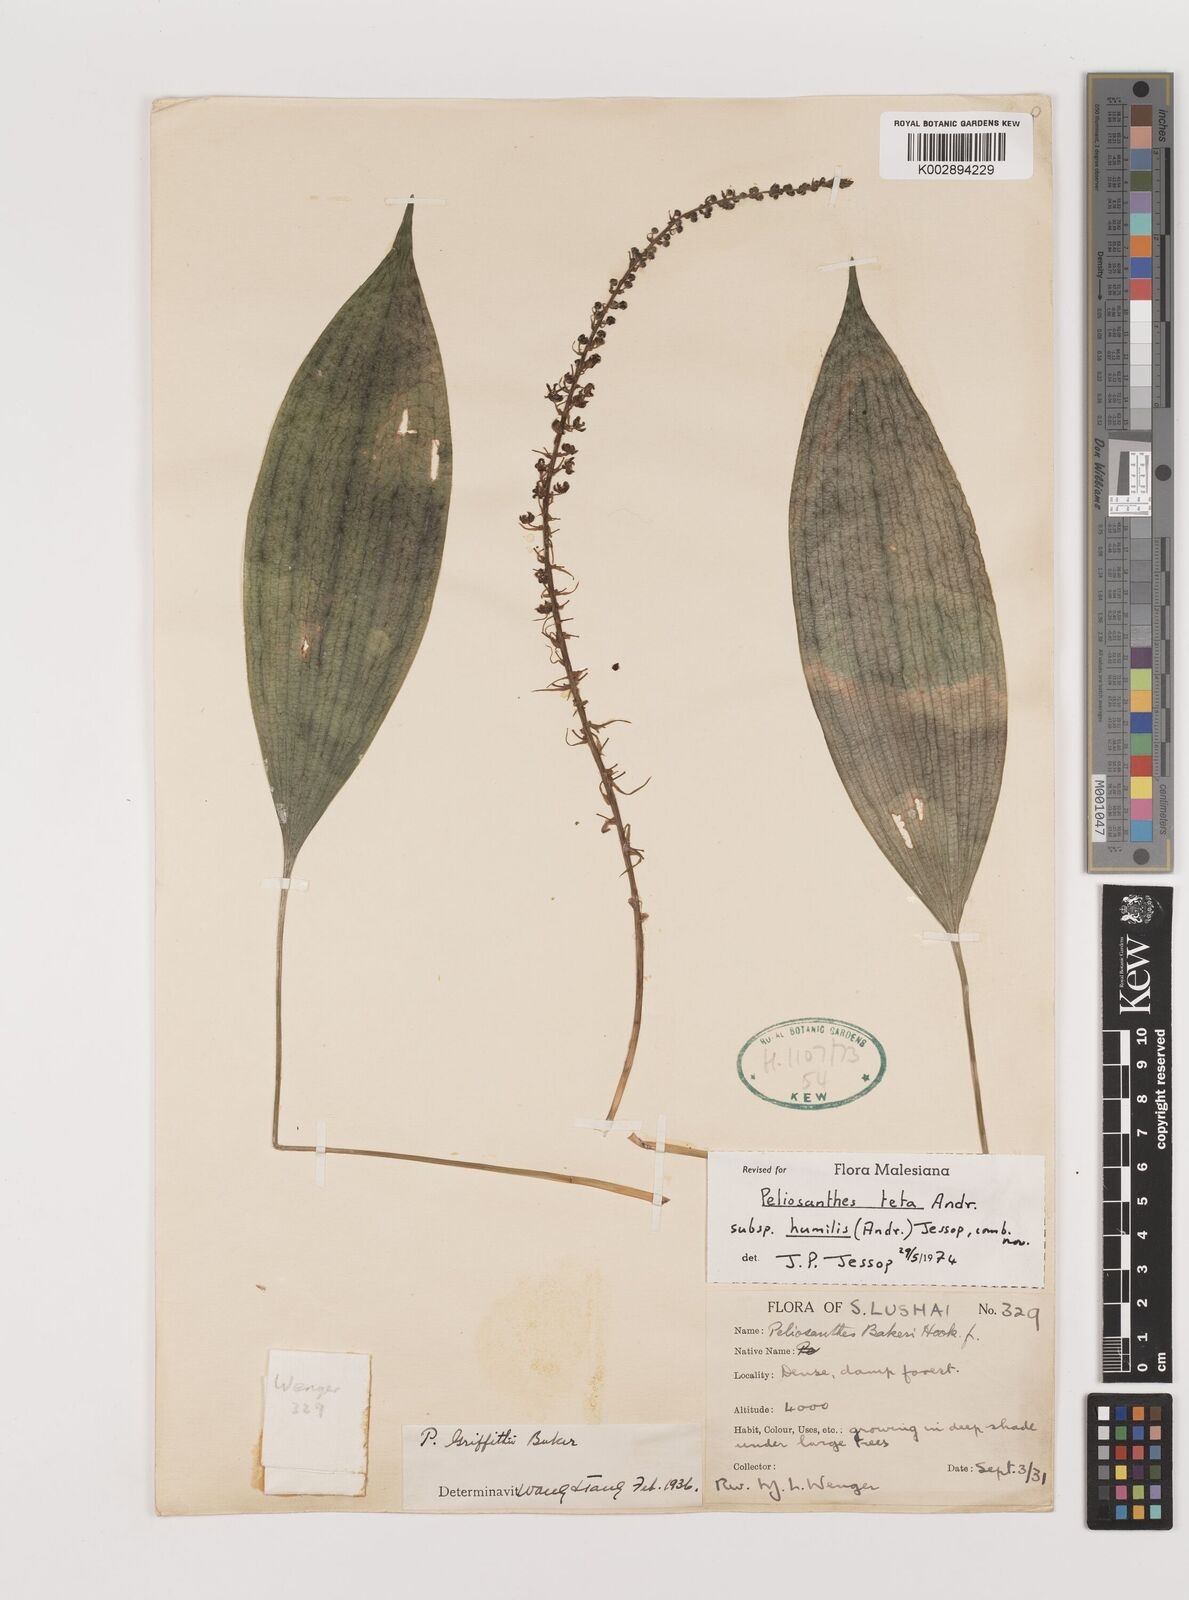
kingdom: Plantae
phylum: Tracheophyta
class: Liliopsida
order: Asparagales
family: Asparagaceae
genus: Peliosanthes
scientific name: Peliosanthes teta
